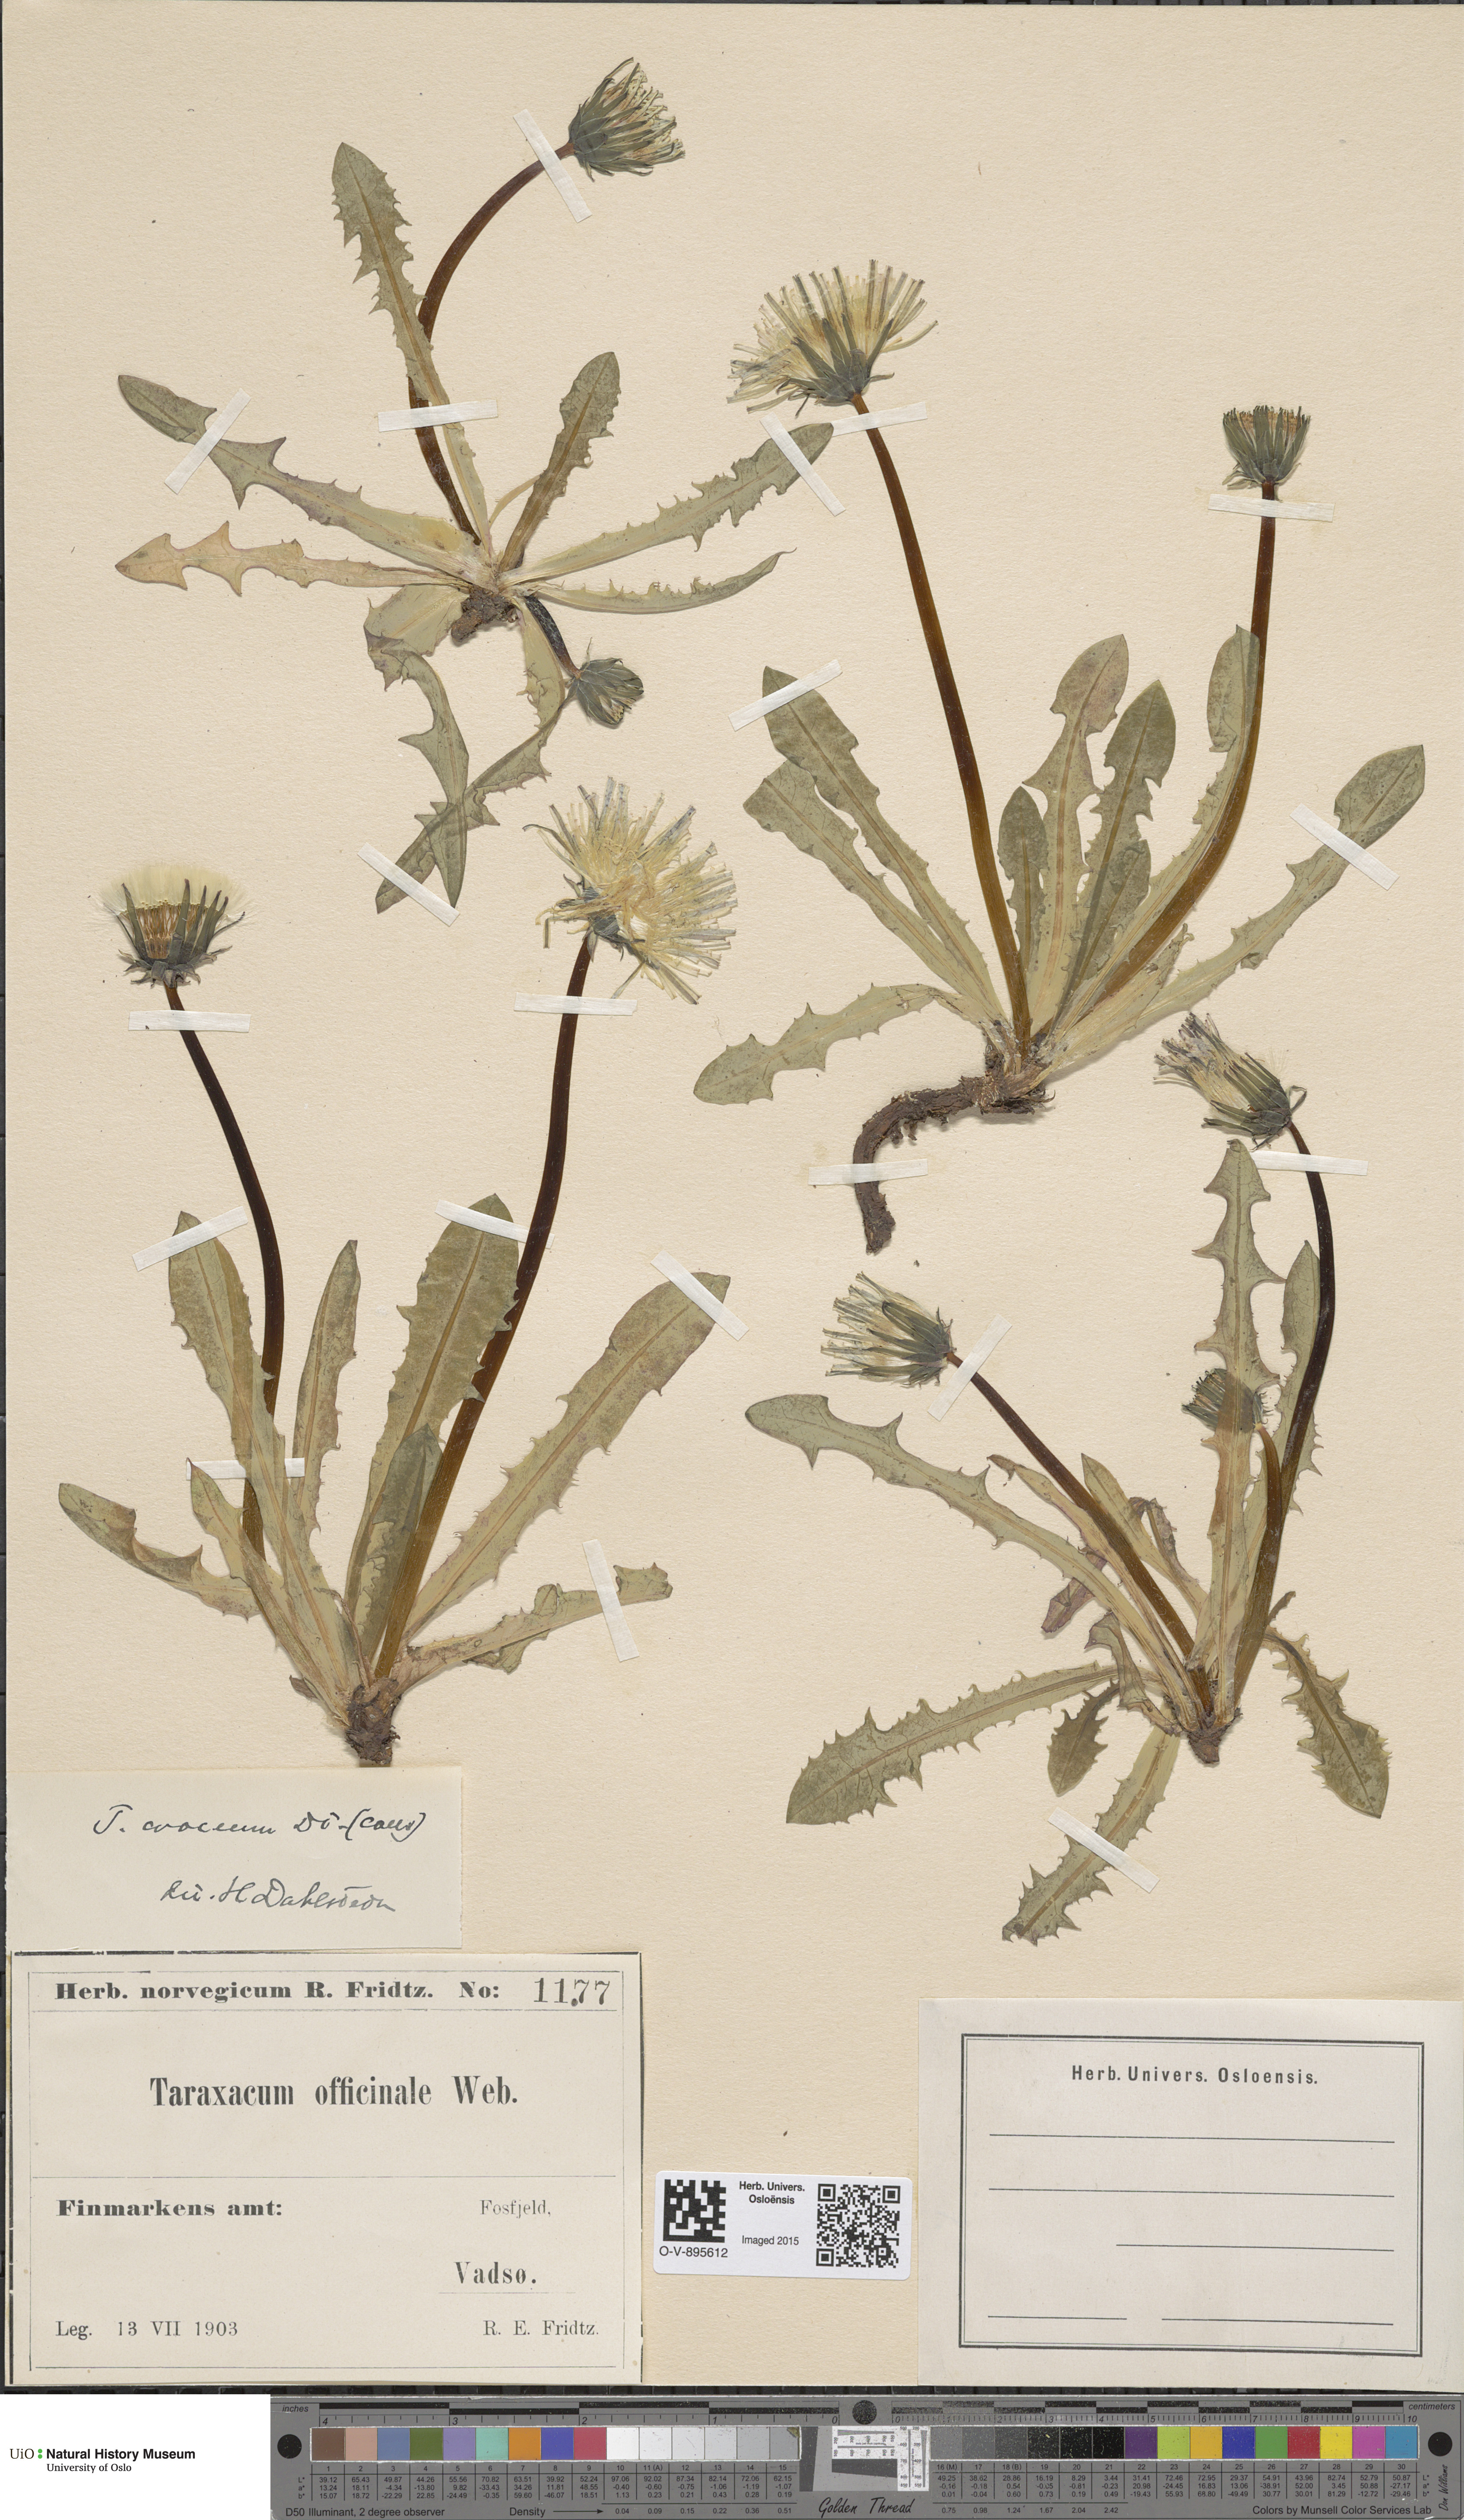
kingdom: Plantae
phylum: Tracheophyta
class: Magnoliopsida
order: Asterales
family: Asteraceae
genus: Taraxacum
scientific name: Taraxacum croceum
